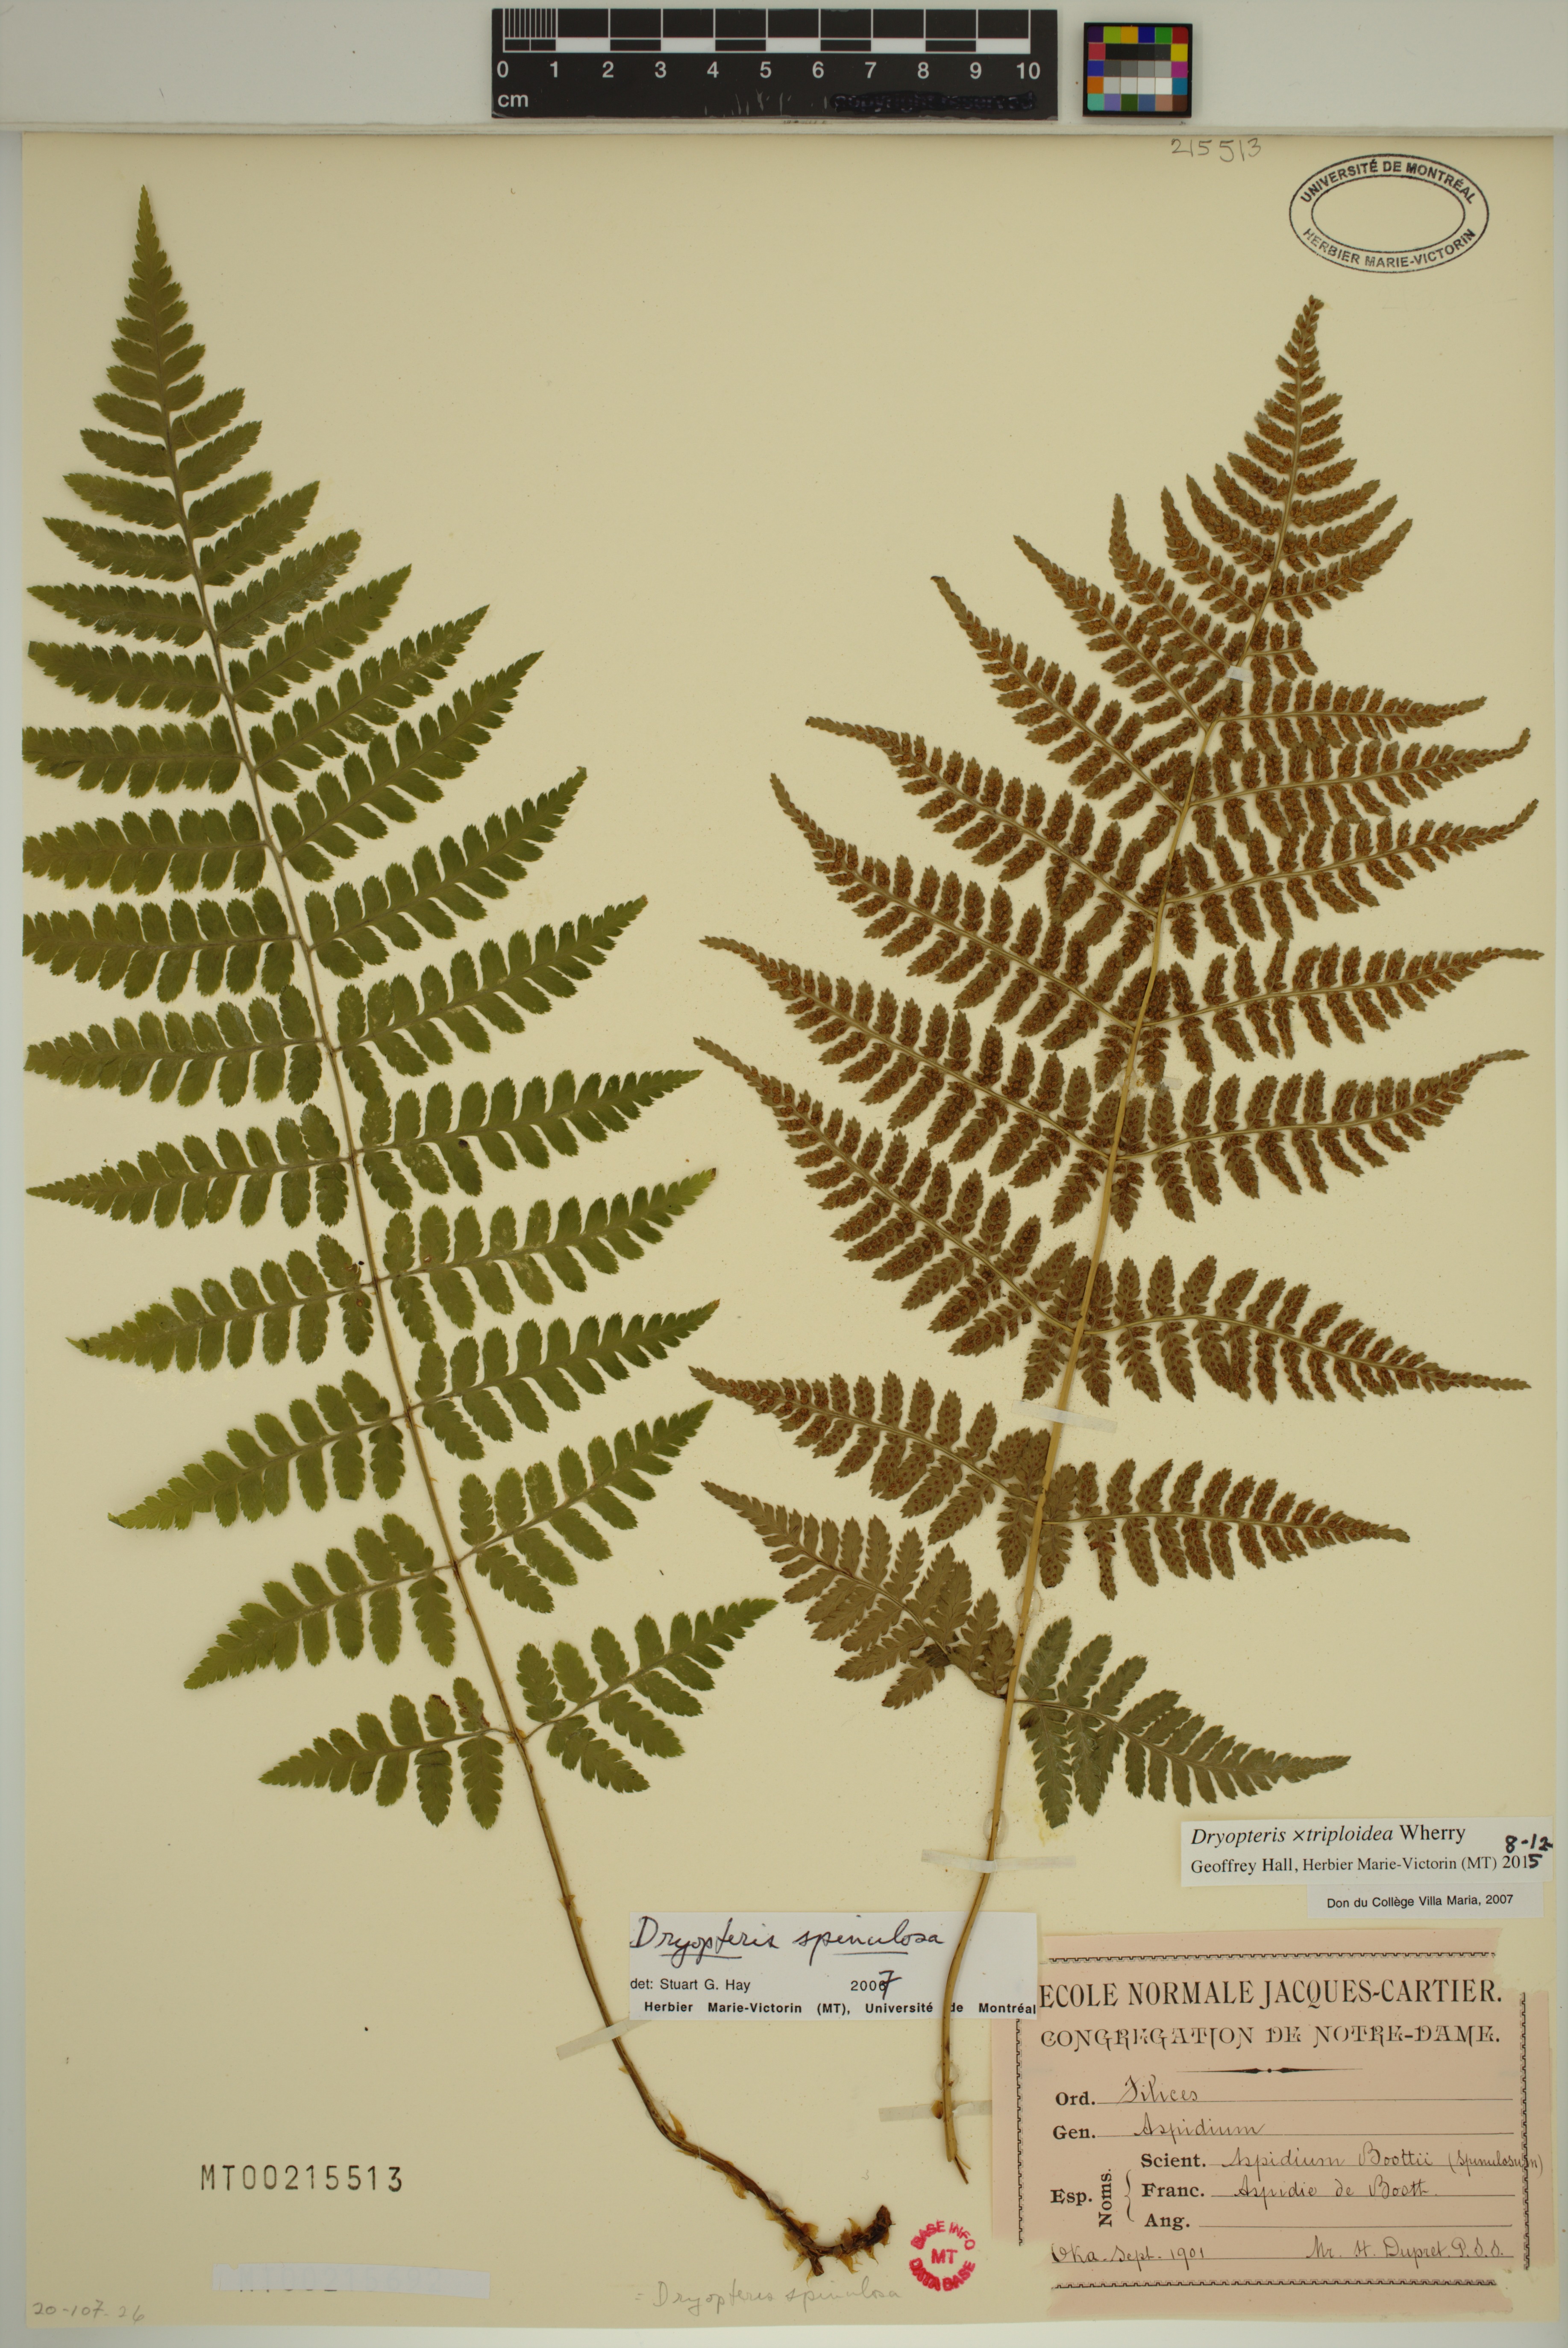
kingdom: Plantae
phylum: Tracheophyta
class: Polypodiopsida
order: Polypodiales
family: Dryopteridaceae
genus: Dryopteris
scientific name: Dryopteris triploidea
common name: Fruitful wood fern
